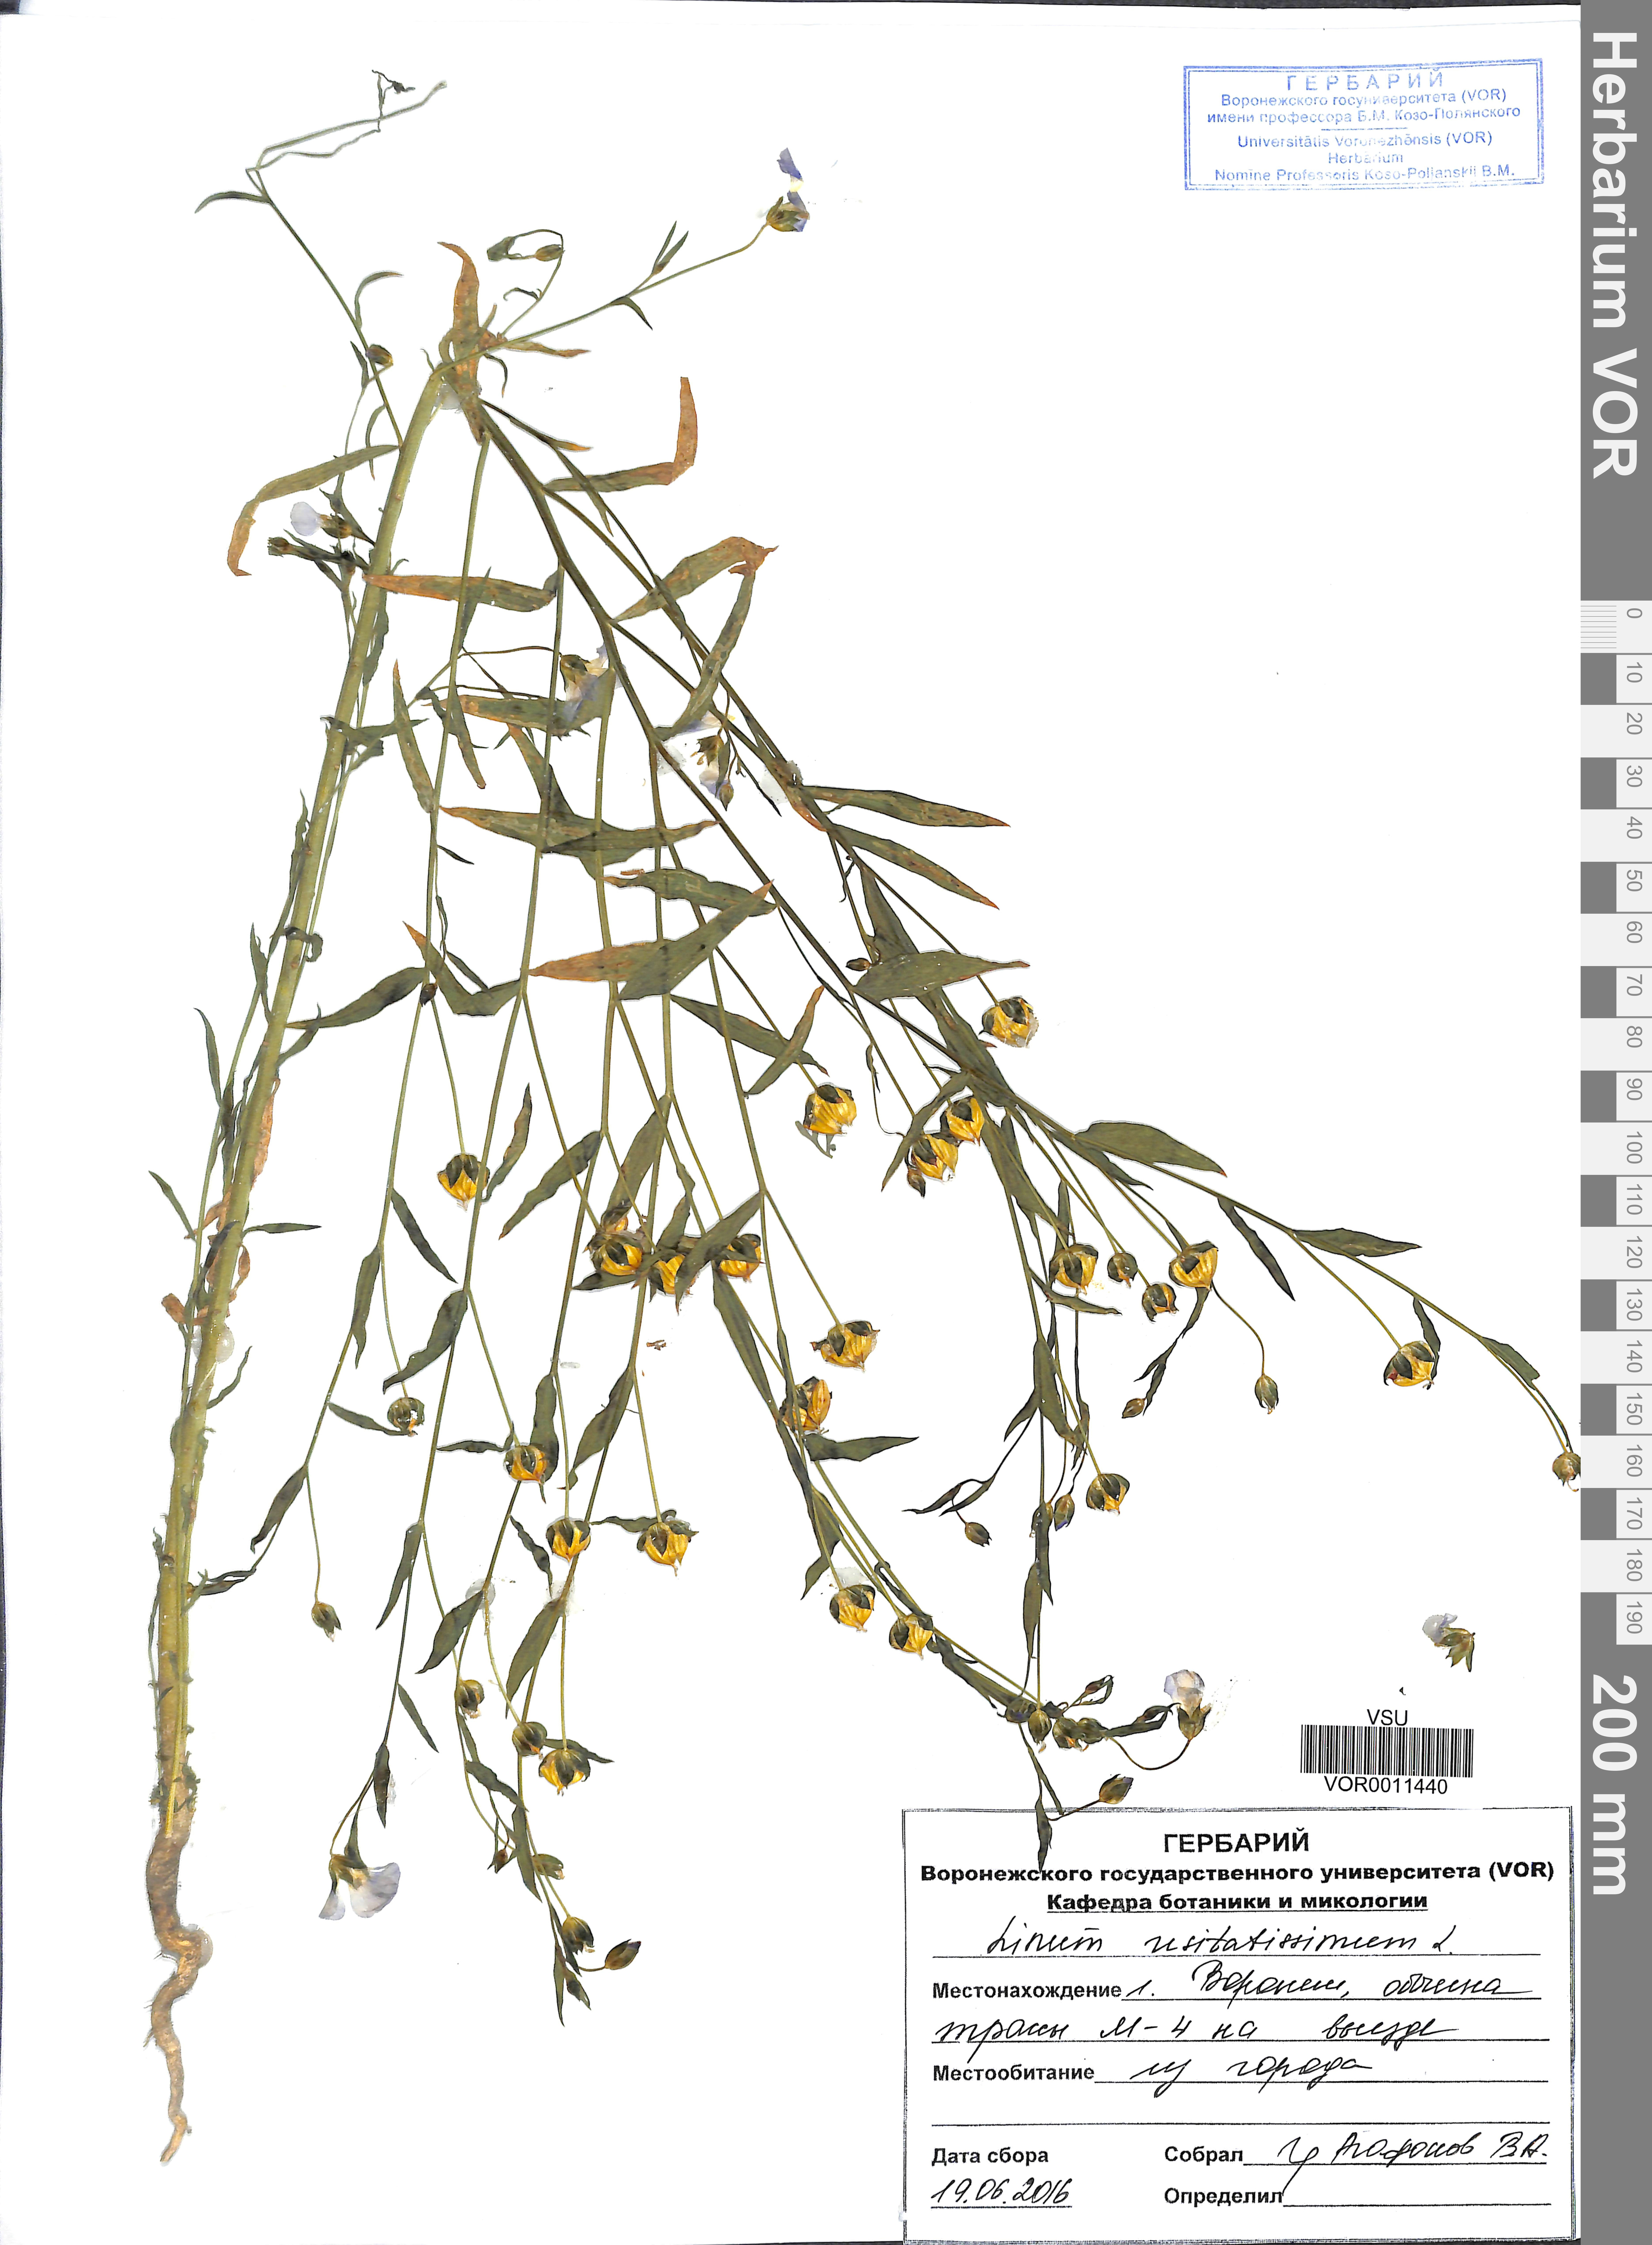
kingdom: Plantae
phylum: Tracheophyta
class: Magnoliopsida
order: Malpighiales
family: Linaceae
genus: Linum
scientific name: Linum usitatissimum
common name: Flax
